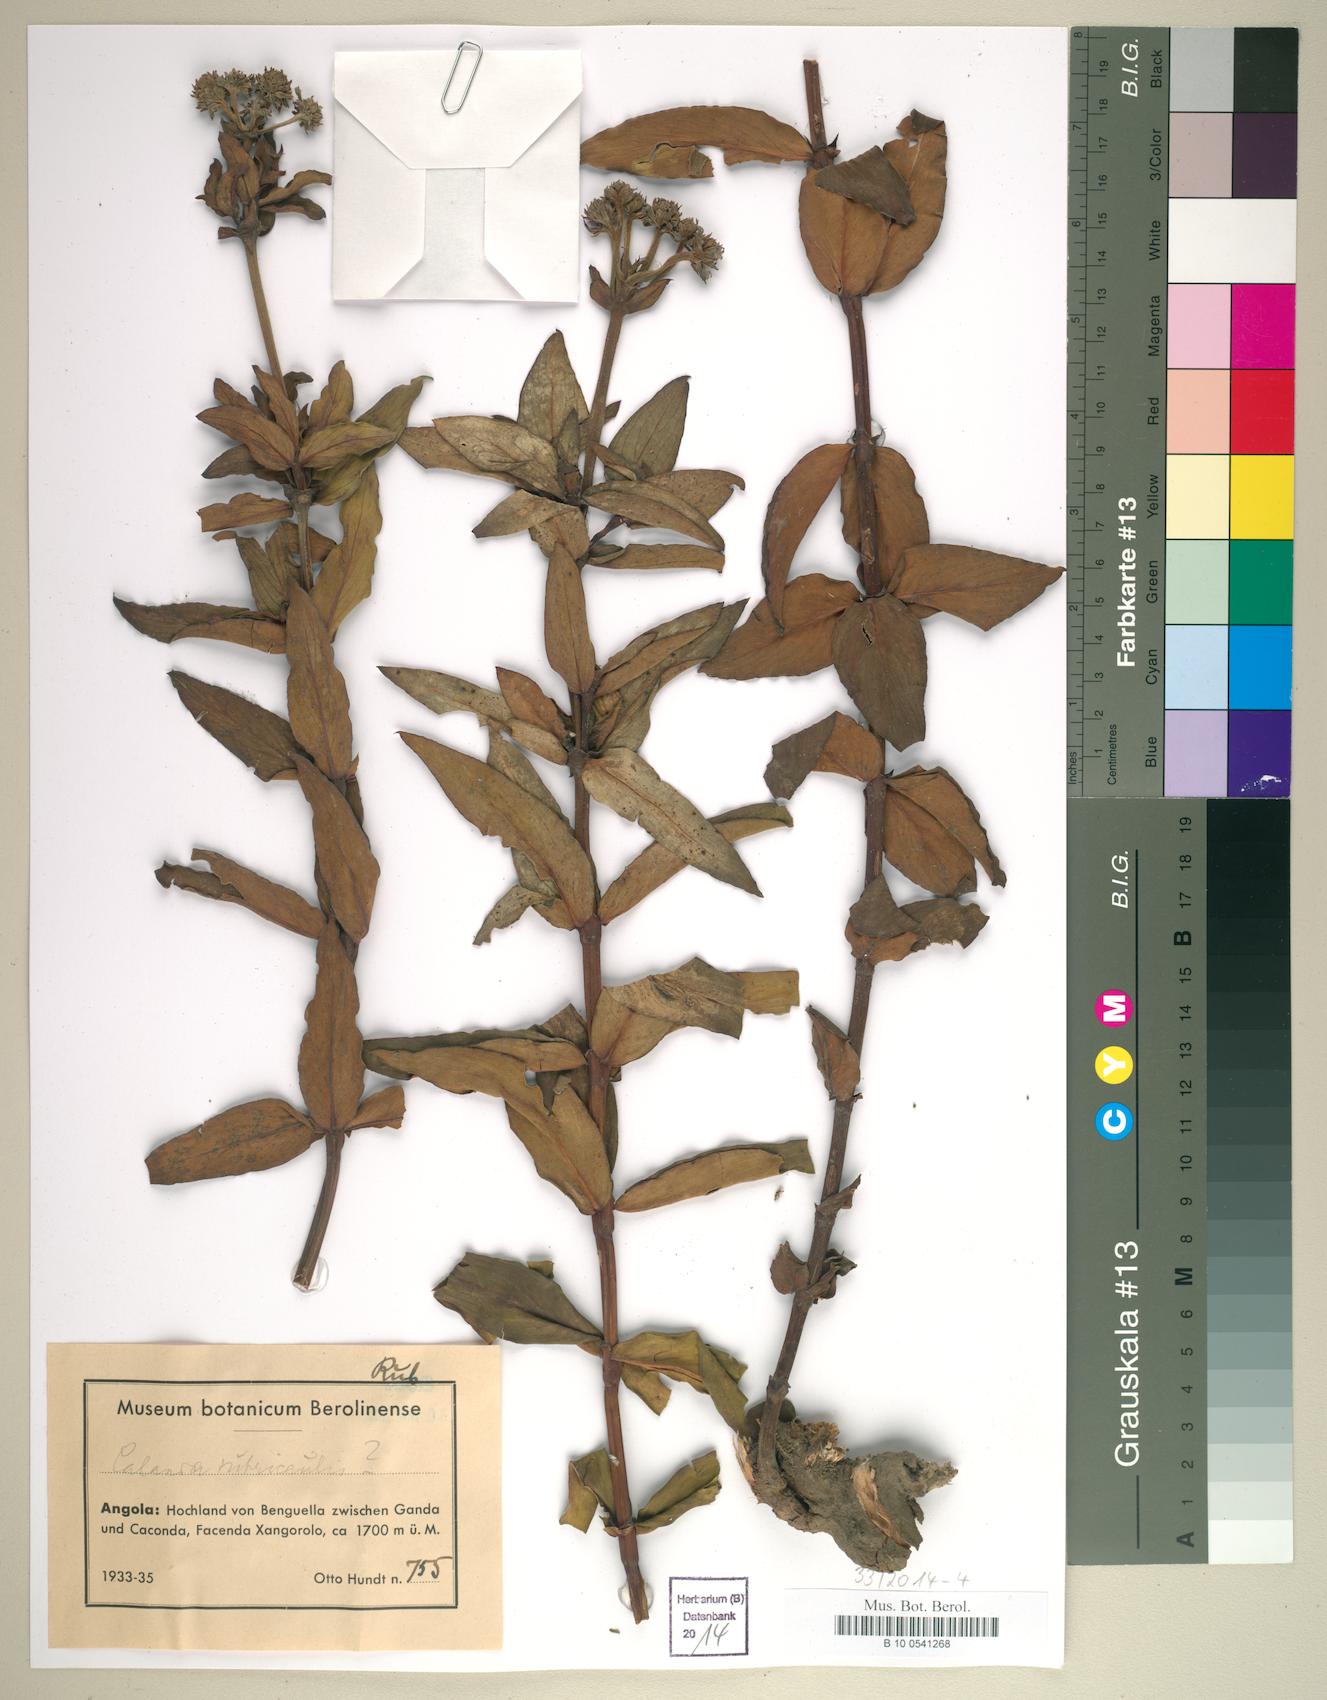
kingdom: Plantae
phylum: Tracheophyta
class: Magnoliopsida
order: Gentianales
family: Rubiaceae
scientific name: Rubiaceae
